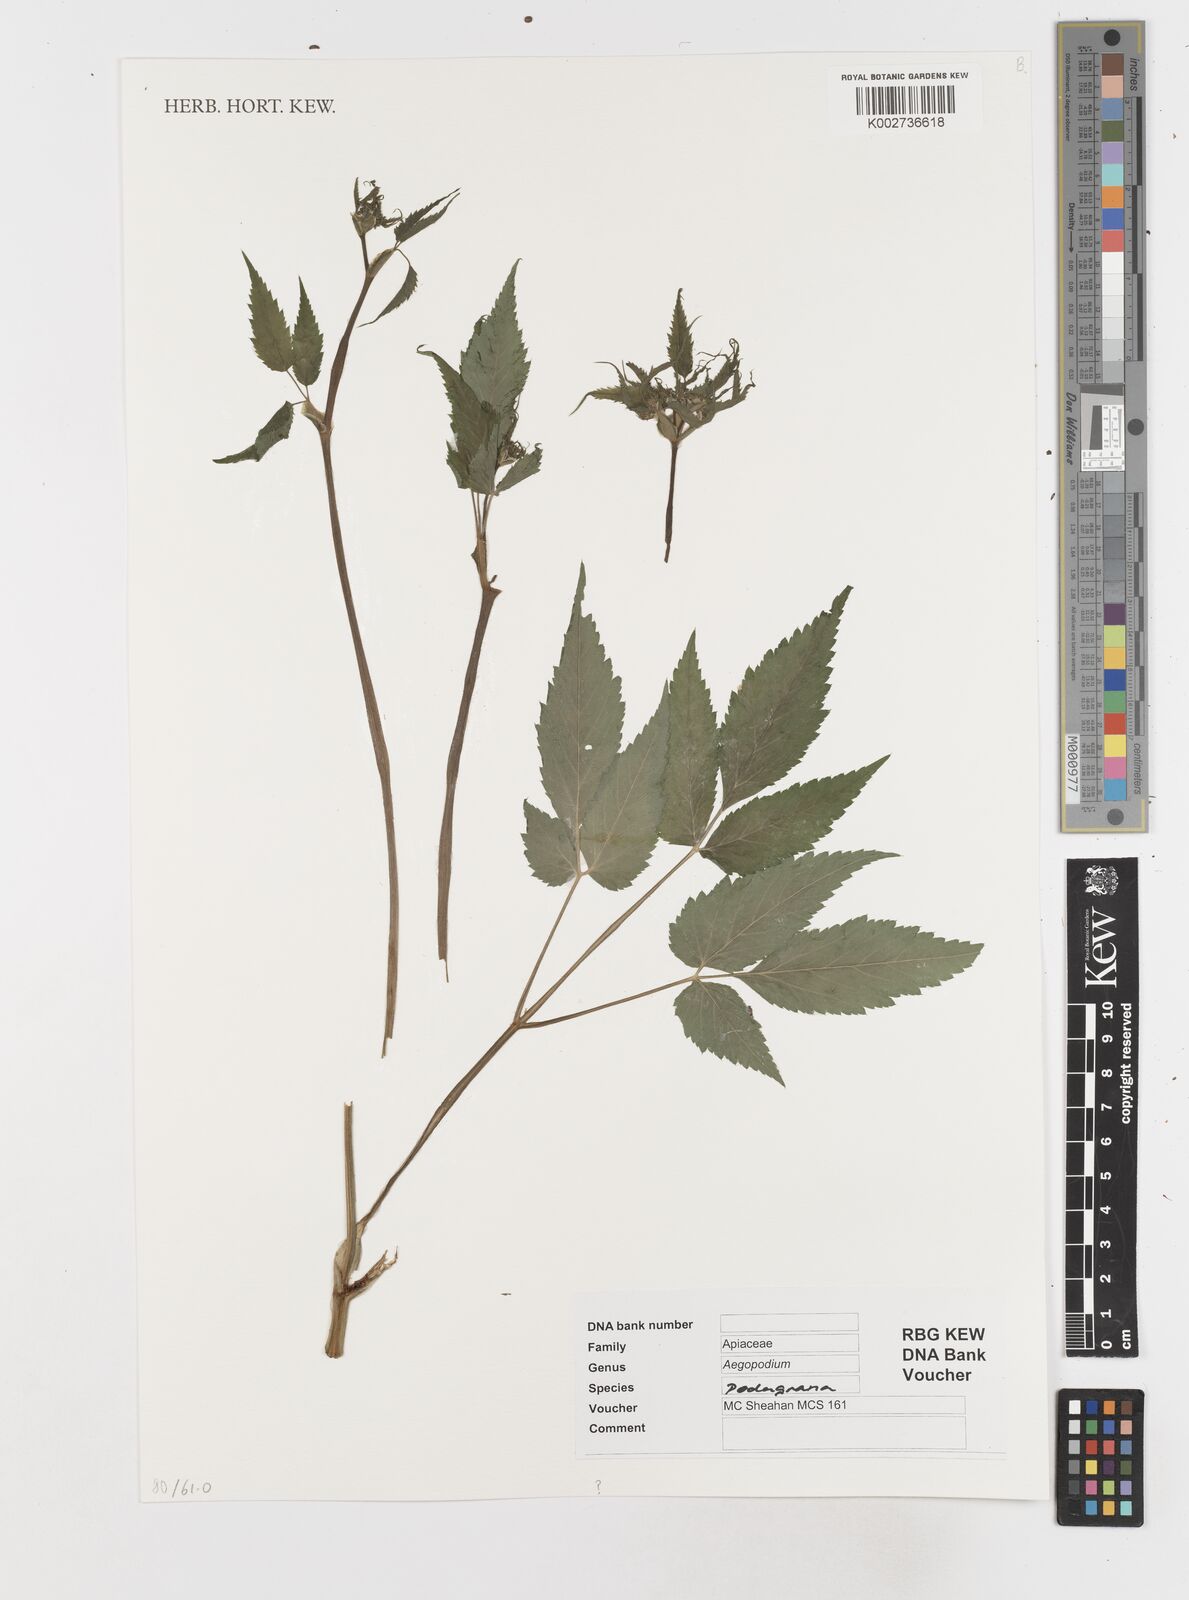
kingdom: Plantae
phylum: Tracheophyta
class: Magnoliopsida
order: Apiales
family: Apiaceae
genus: Aegopodium
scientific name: Aegopodium podagraria
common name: Ground-elder
